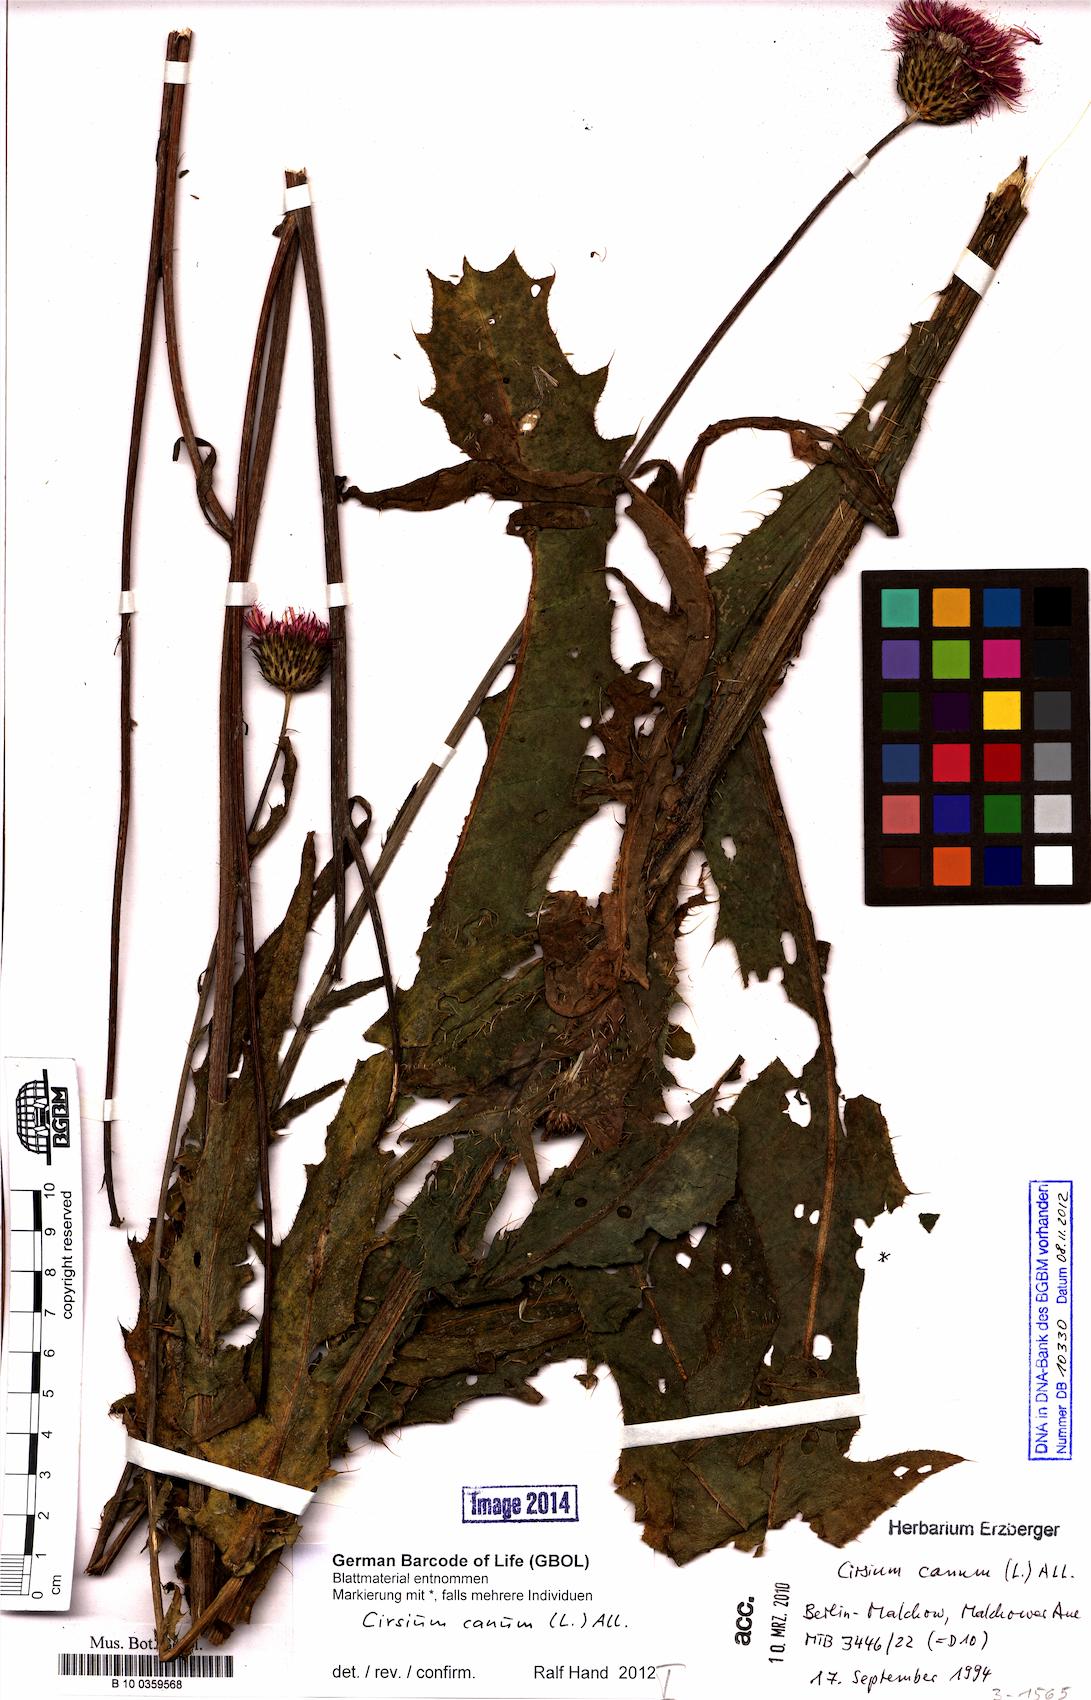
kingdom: Plantae
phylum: Tracheophyta
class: Magnoliopsida
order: Asterales
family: Asteraceae
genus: Cirsium
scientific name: Cirsium canum
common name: Queen anne's thistle
